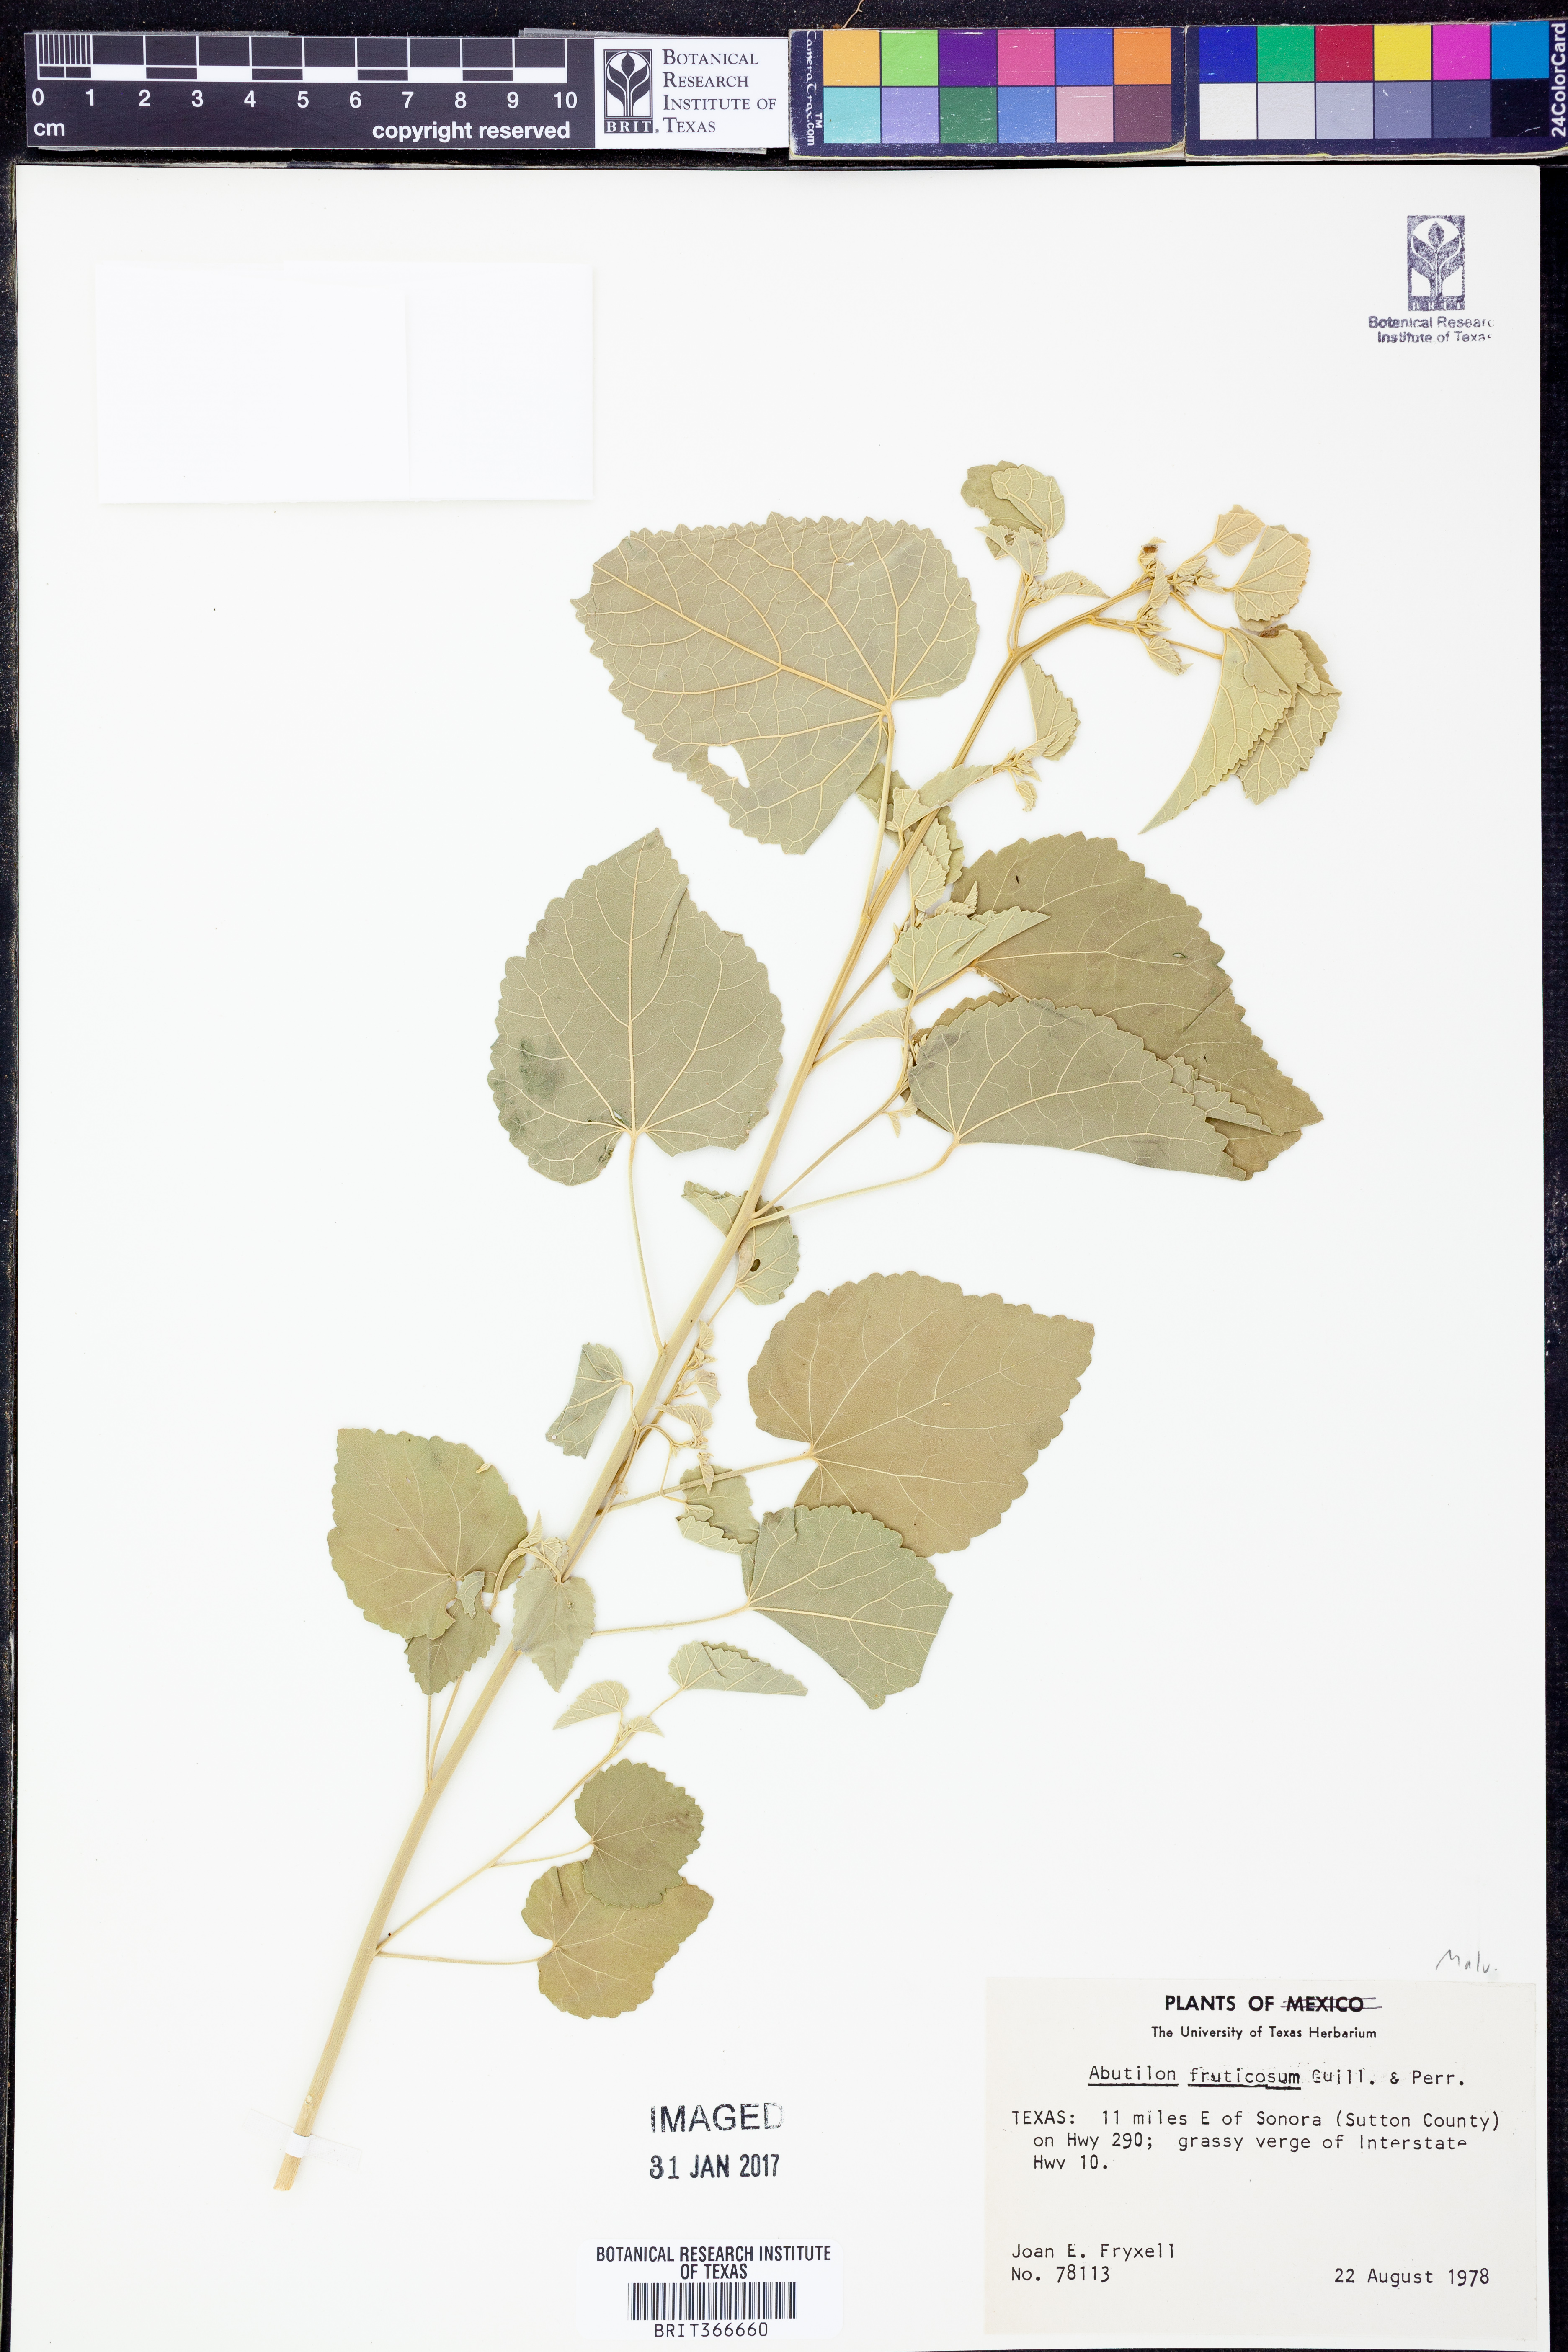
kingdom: Plantae
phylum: Tracheophyta
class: Magnoliopsida
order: Malvales
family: Malvaceae
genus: Abutilon
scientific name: Abutilon fruticosum
